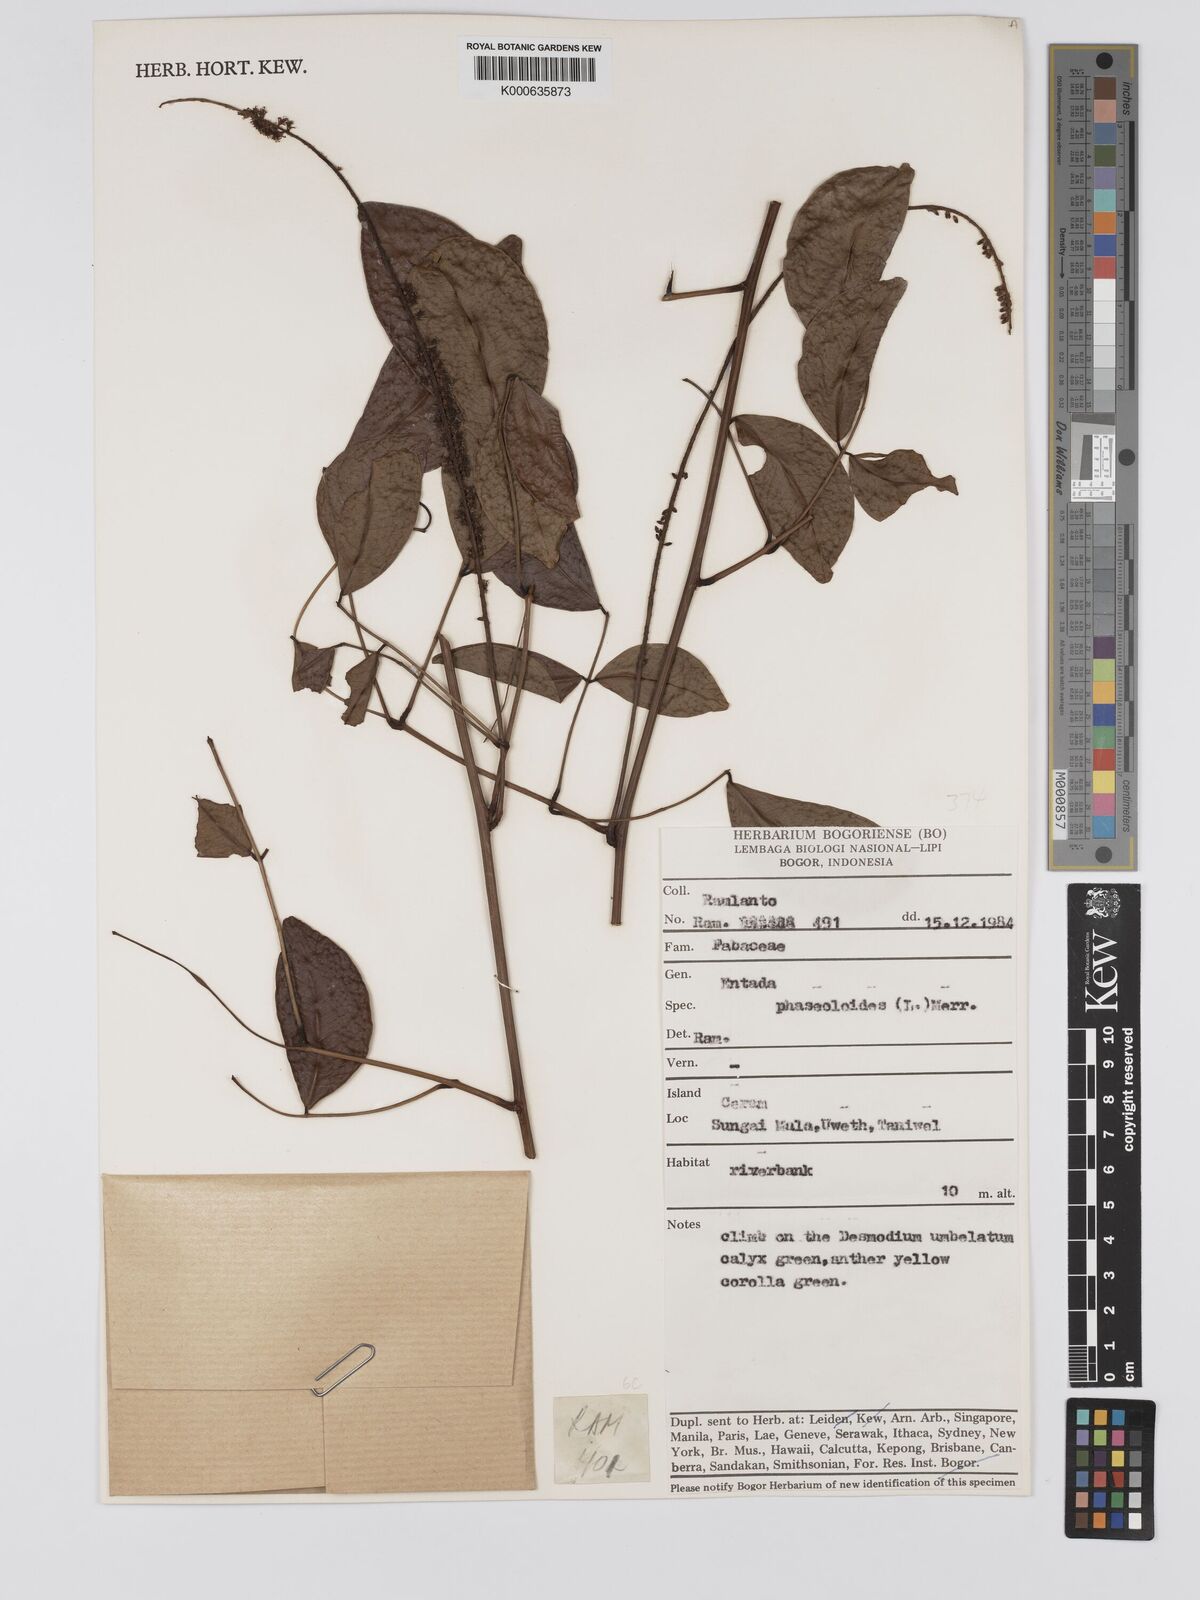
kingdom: Plantae
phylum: Tracheophyta
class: Magnoliopsida
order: Fabales
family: Fabaceae
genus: Entada
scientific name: Entada phaseoloides
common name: Matchbox-bean
